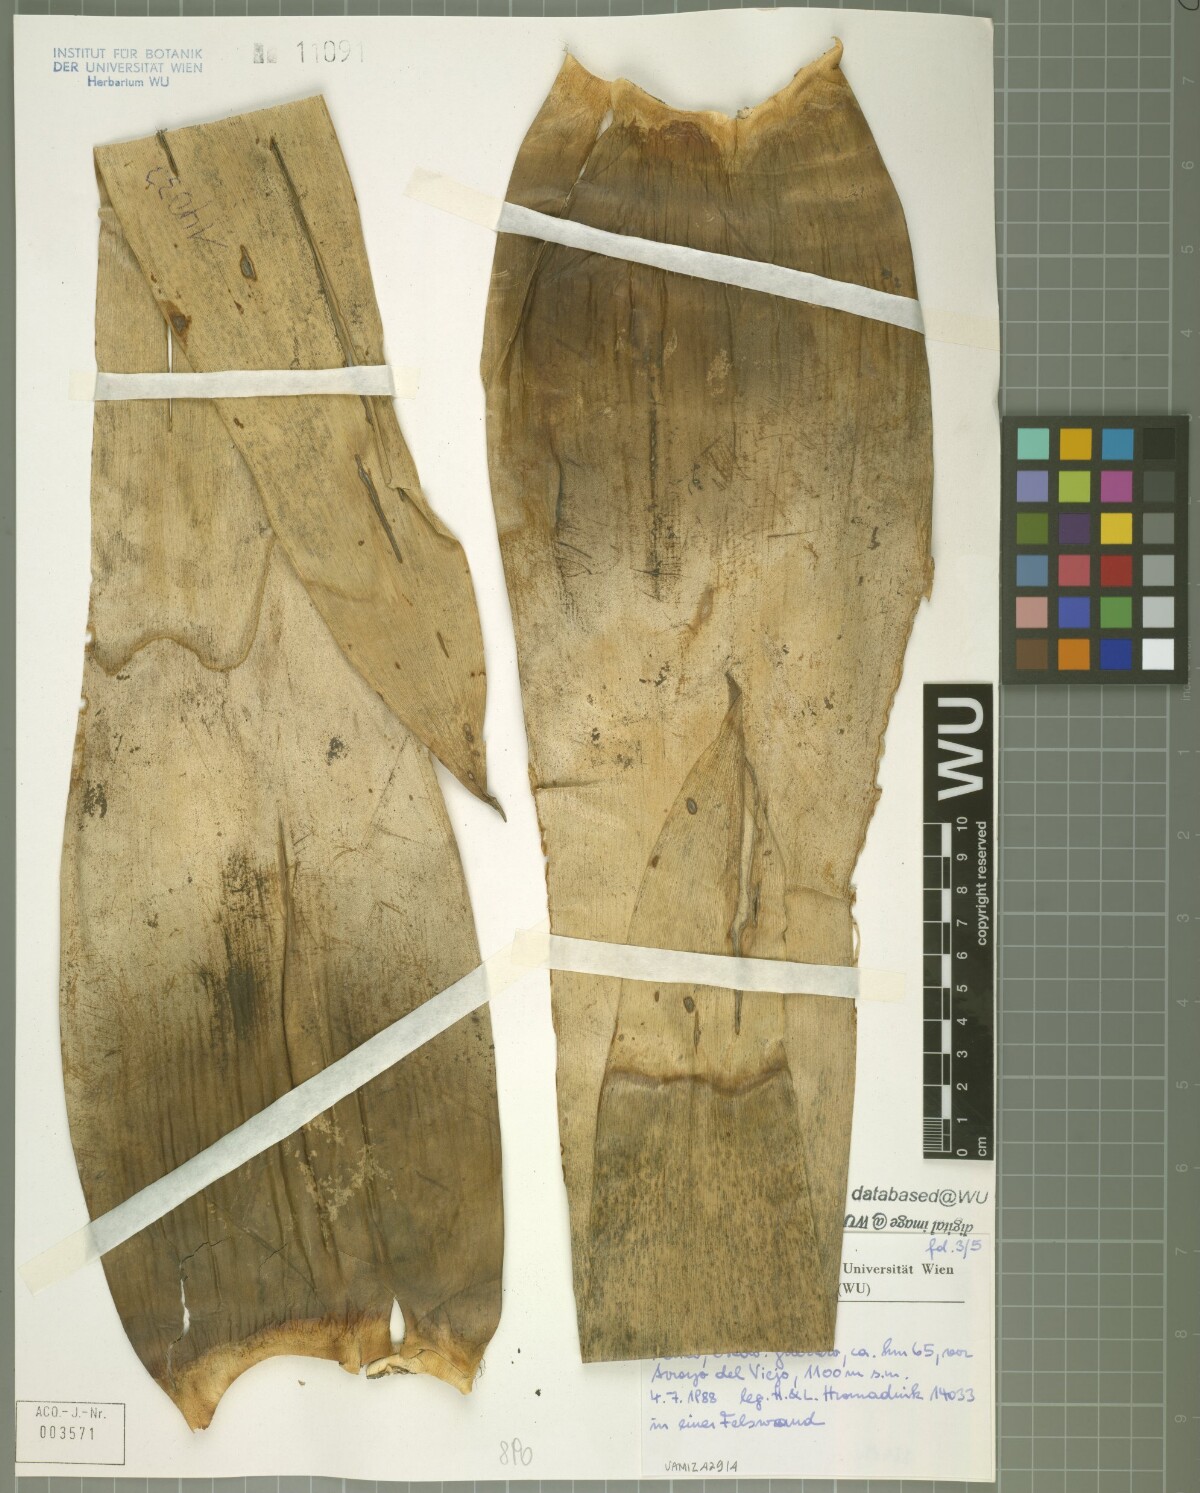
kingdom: Plantae
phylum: Tracheophyta
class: Liliopsida
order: Poales
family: Bromeliaceae
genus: Tillandsia
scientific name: Tillandsia trauneri
